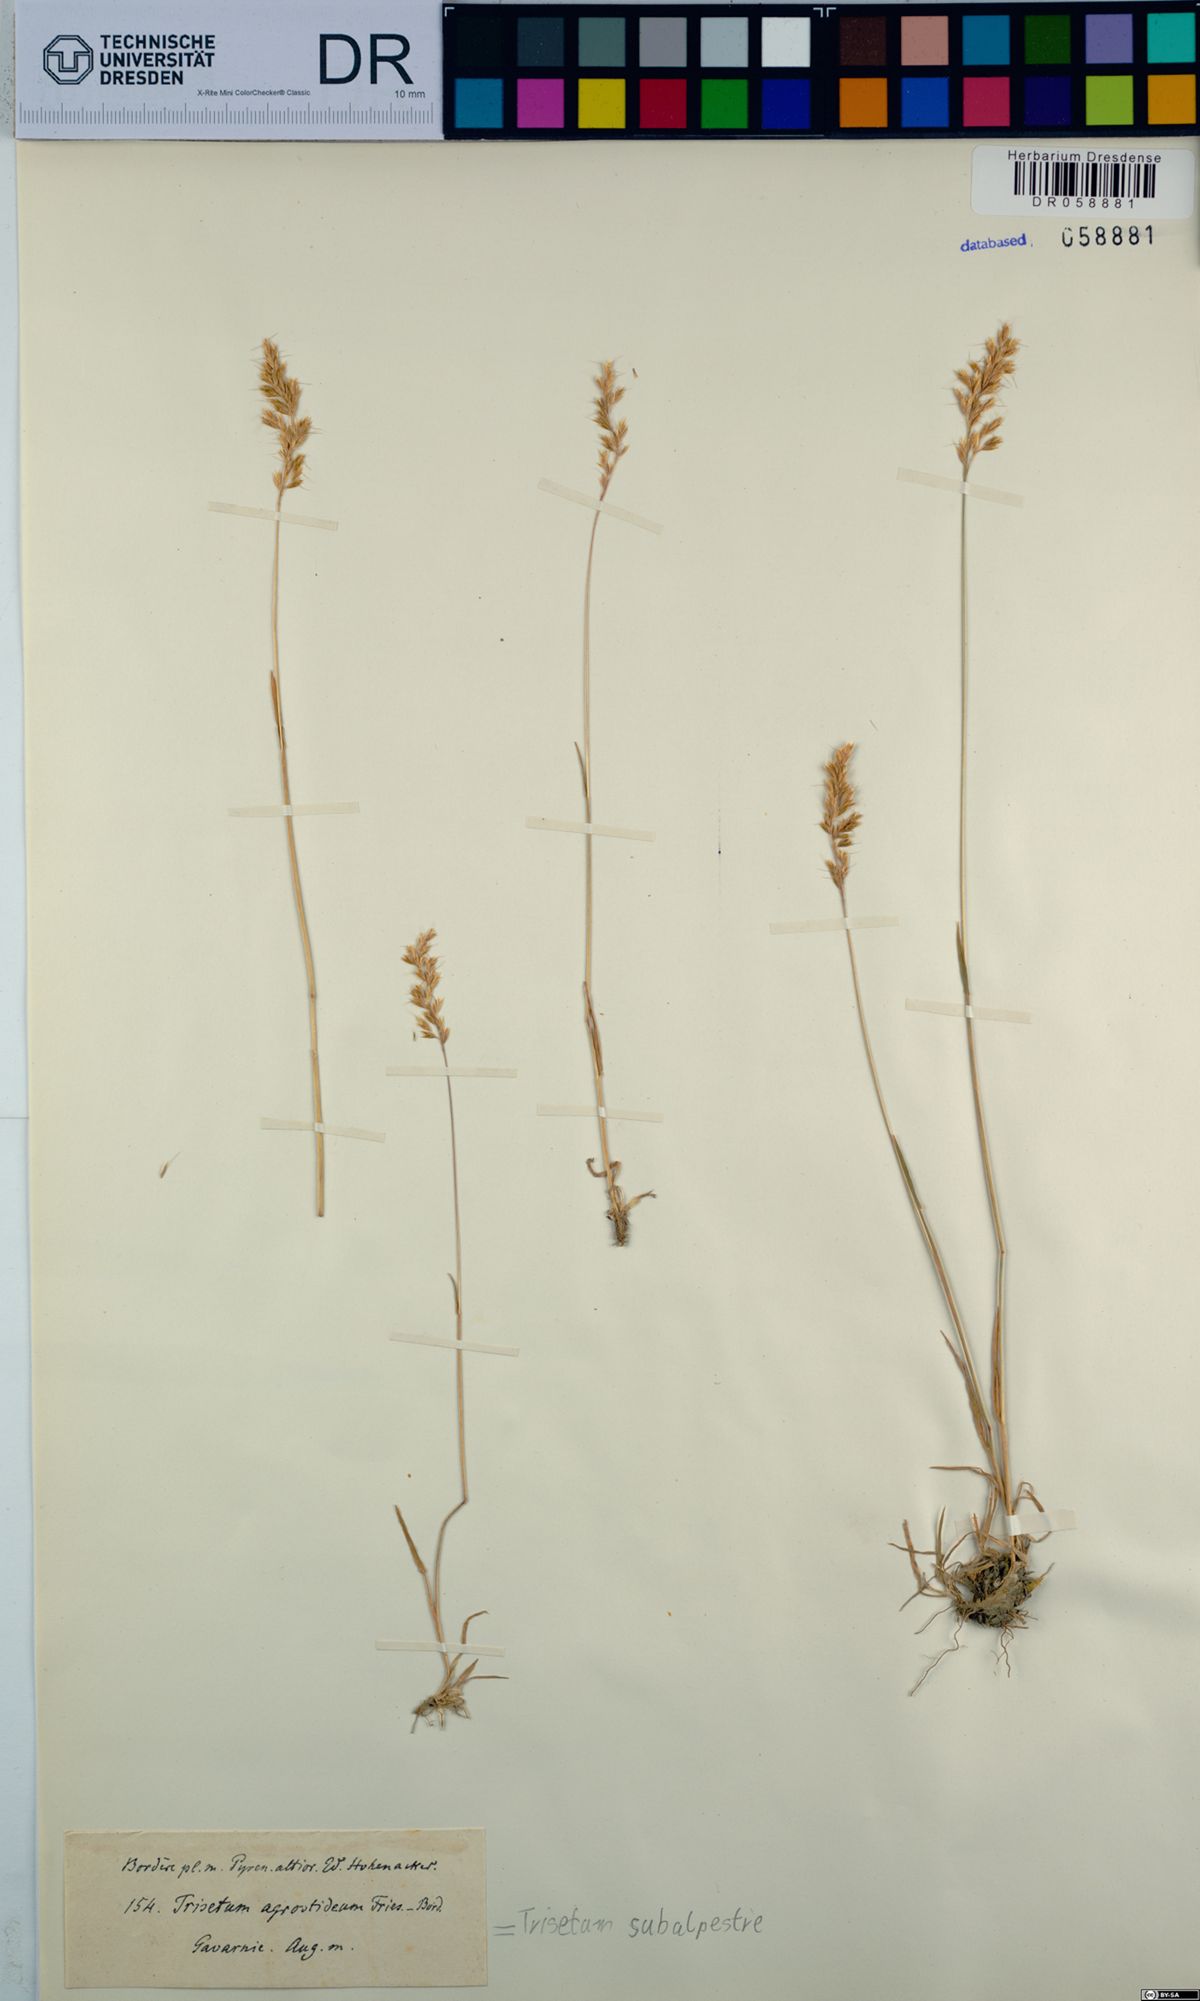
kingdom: Plantae
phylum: Tracheophyta
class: Liliopsida
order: Poales
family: Poaceae
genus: Koeleria
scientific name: Koeleria subalpestris
